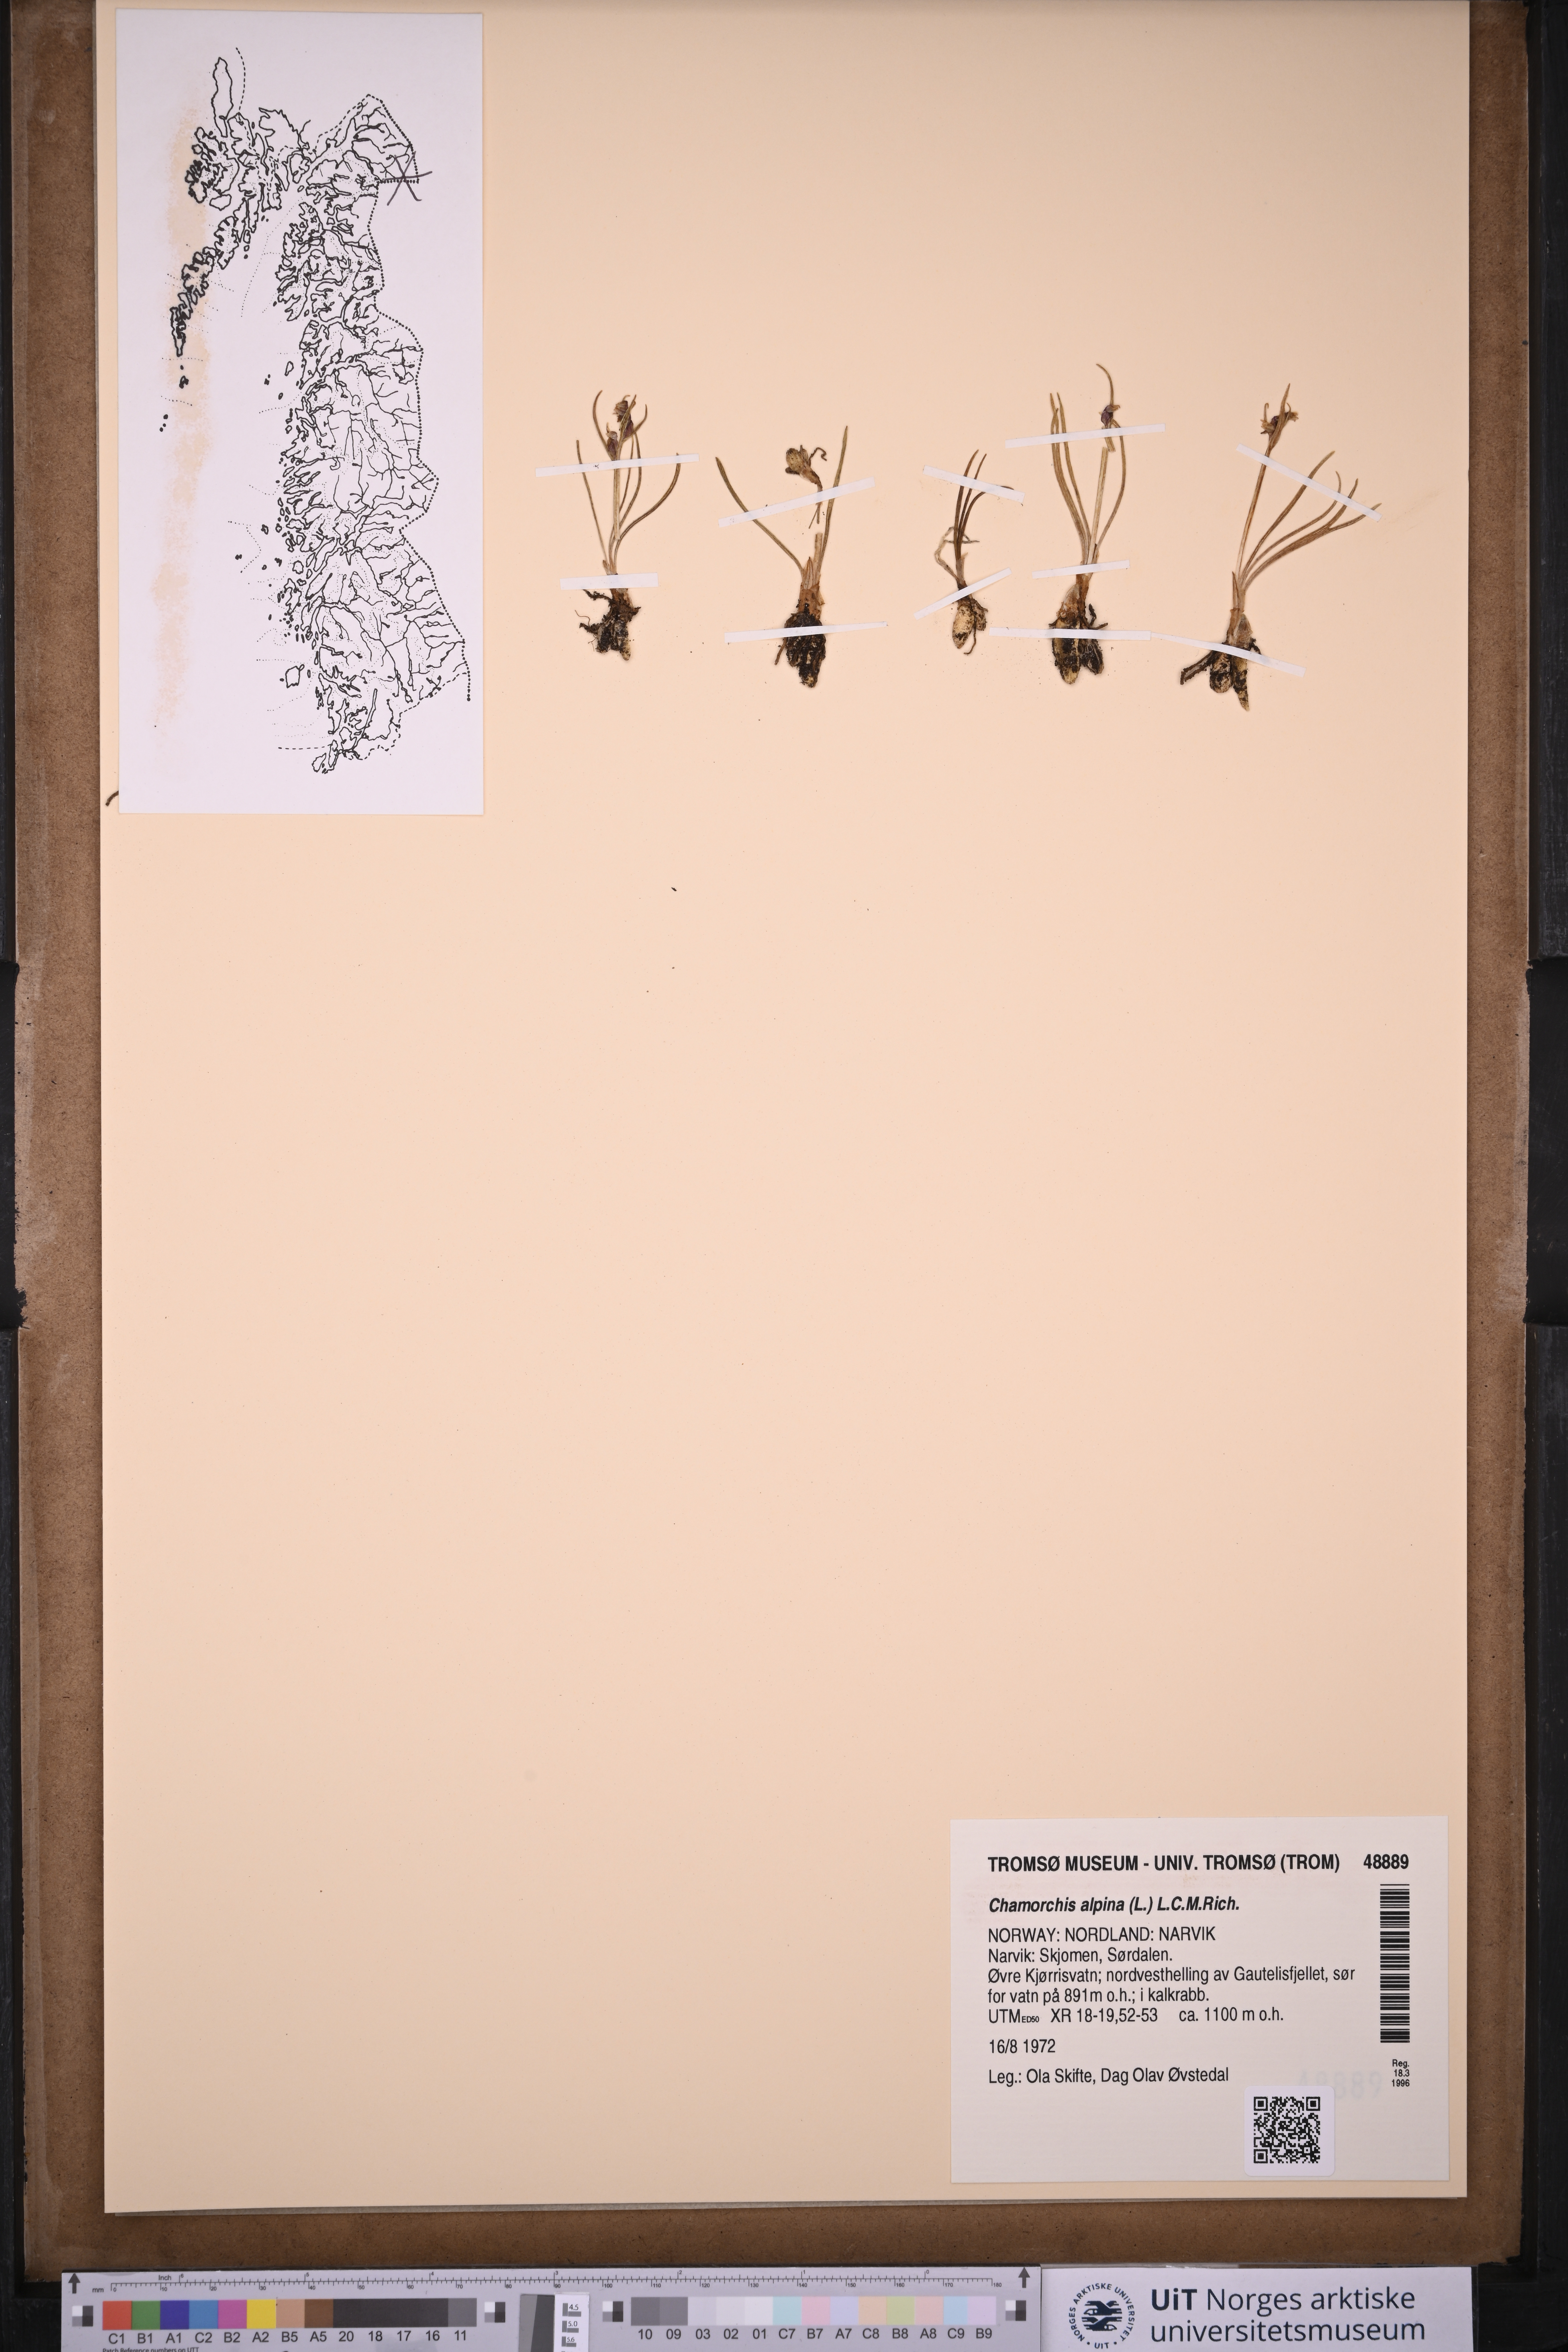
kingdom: Plantae
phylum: Tracheophyta
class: Liliopsida
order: Asparagales
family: Orchidaceae
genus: Chamorchis
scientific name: Chamorchis alpina
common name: Alpine chamorchis
